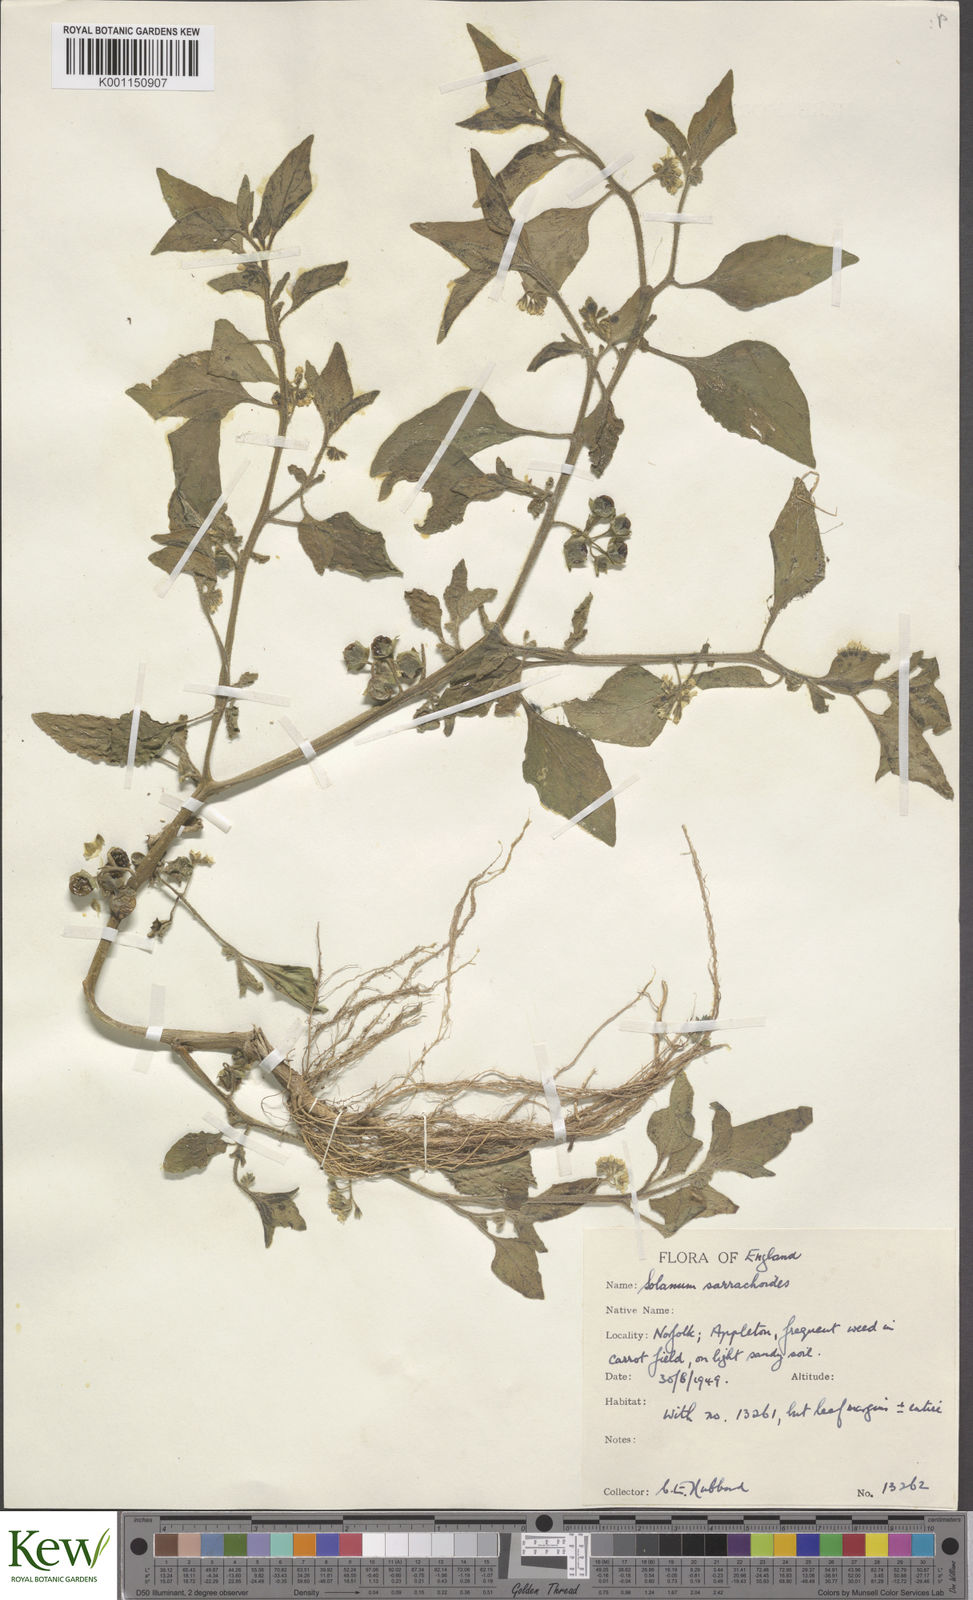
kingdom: Plantae
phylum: Tracheophyta
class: Magnoliopsida
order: Solanales
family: Solanaceae
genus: Solanum
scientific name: Solanum nitidibaccatum
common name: Hairy nightshade
